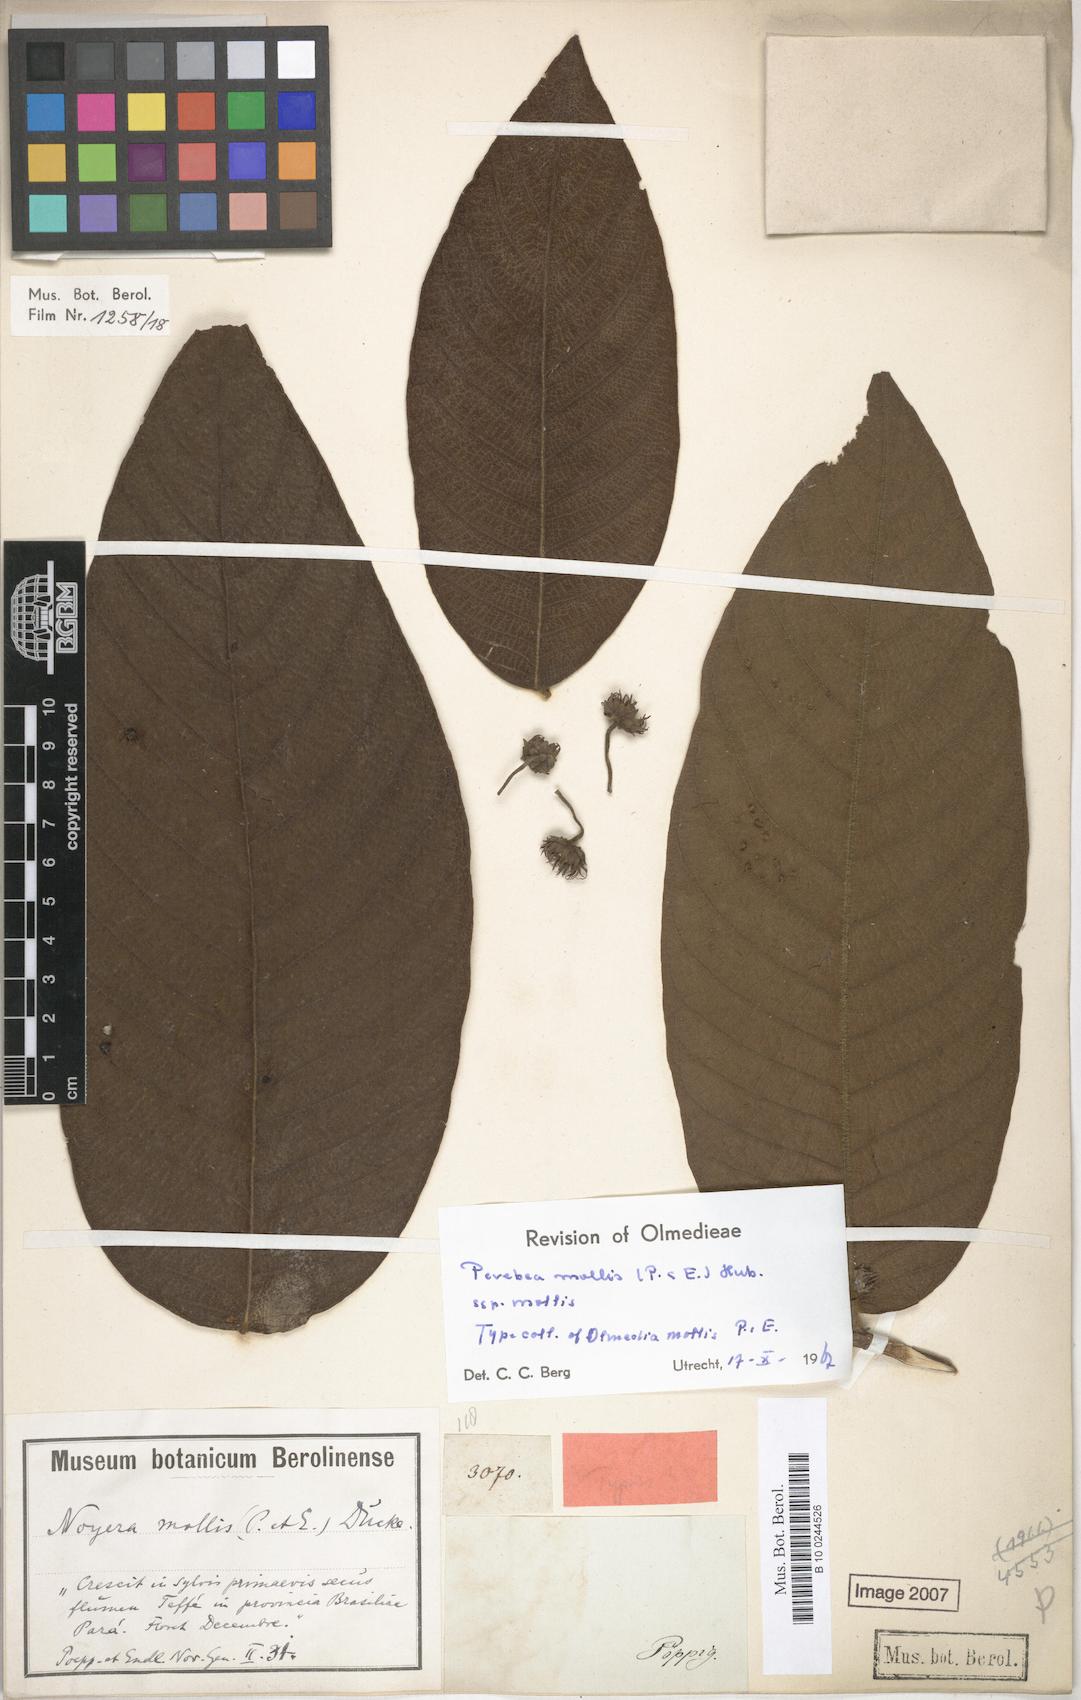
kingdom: Plantae
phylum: Tracheophyta
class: Magnoliopsida
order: Rosales
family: Moraceae
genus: Perebea
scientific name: Perebea mollis
